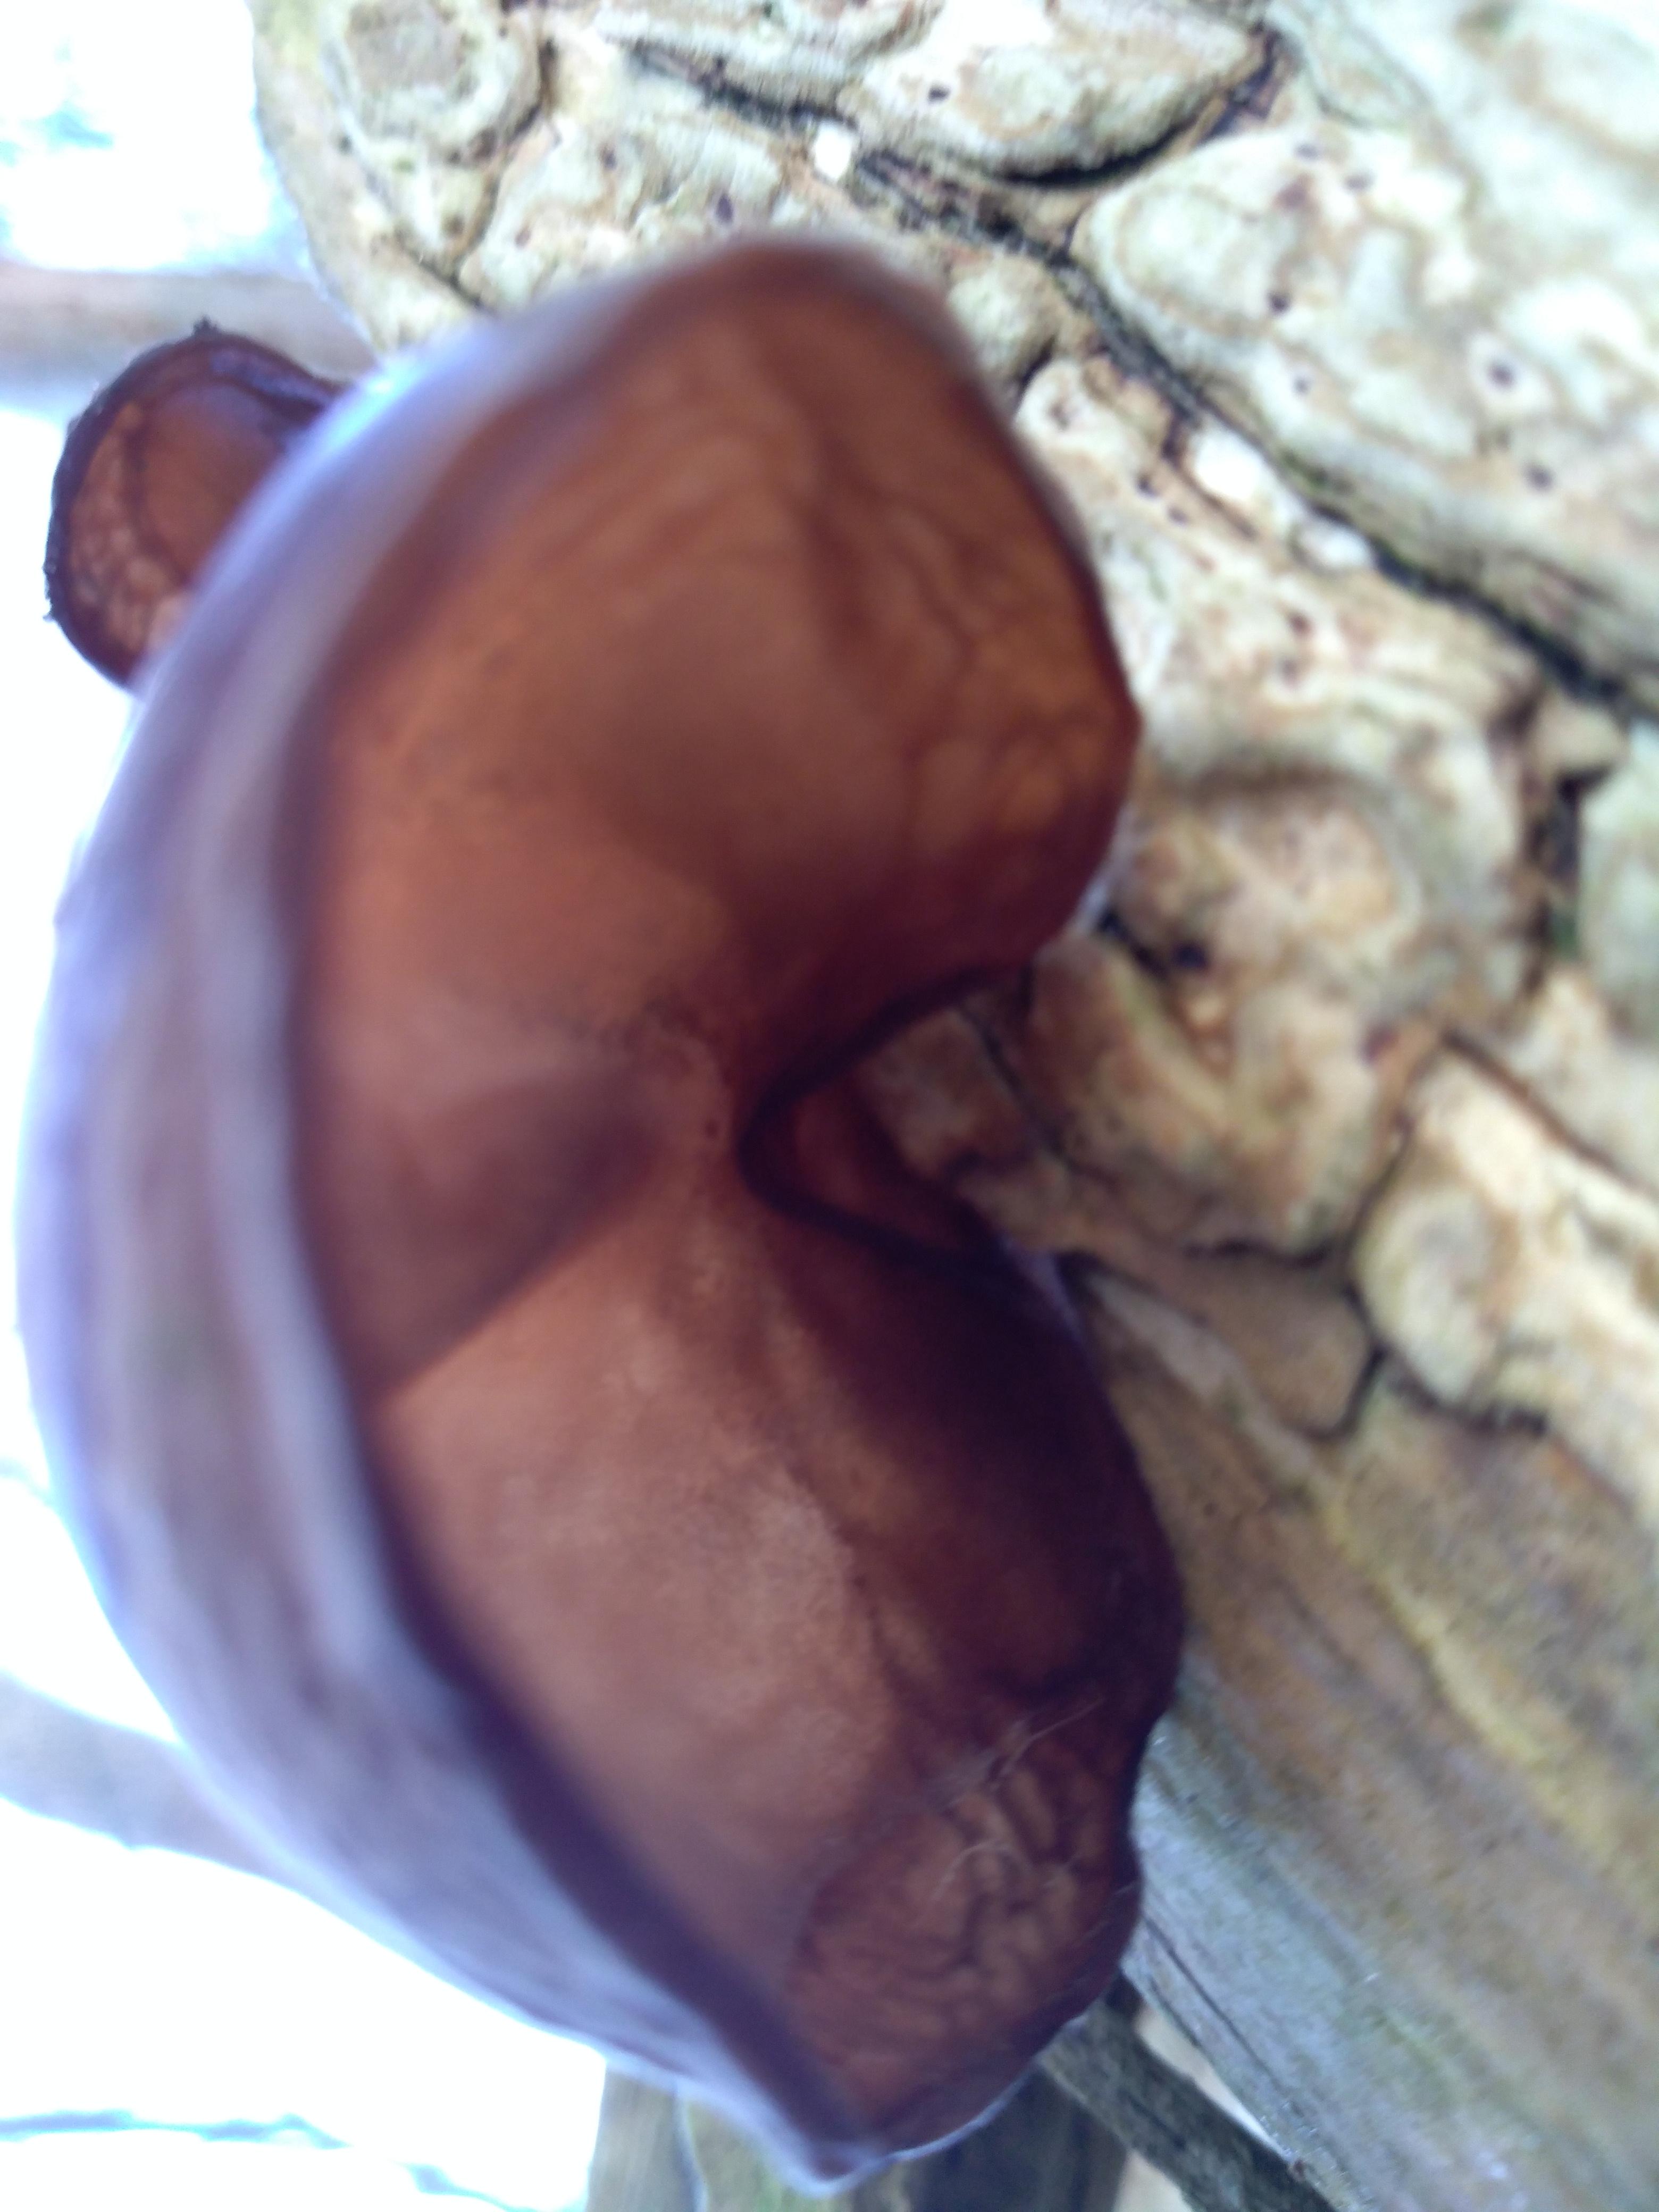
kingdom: Fungi
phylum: Basidiomycota
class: Agaricomycetes
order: Auriculariales
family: Auriculariaceae
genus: Auricularia
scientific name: Auricularia auricula-judae
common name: almindelig judasøre
